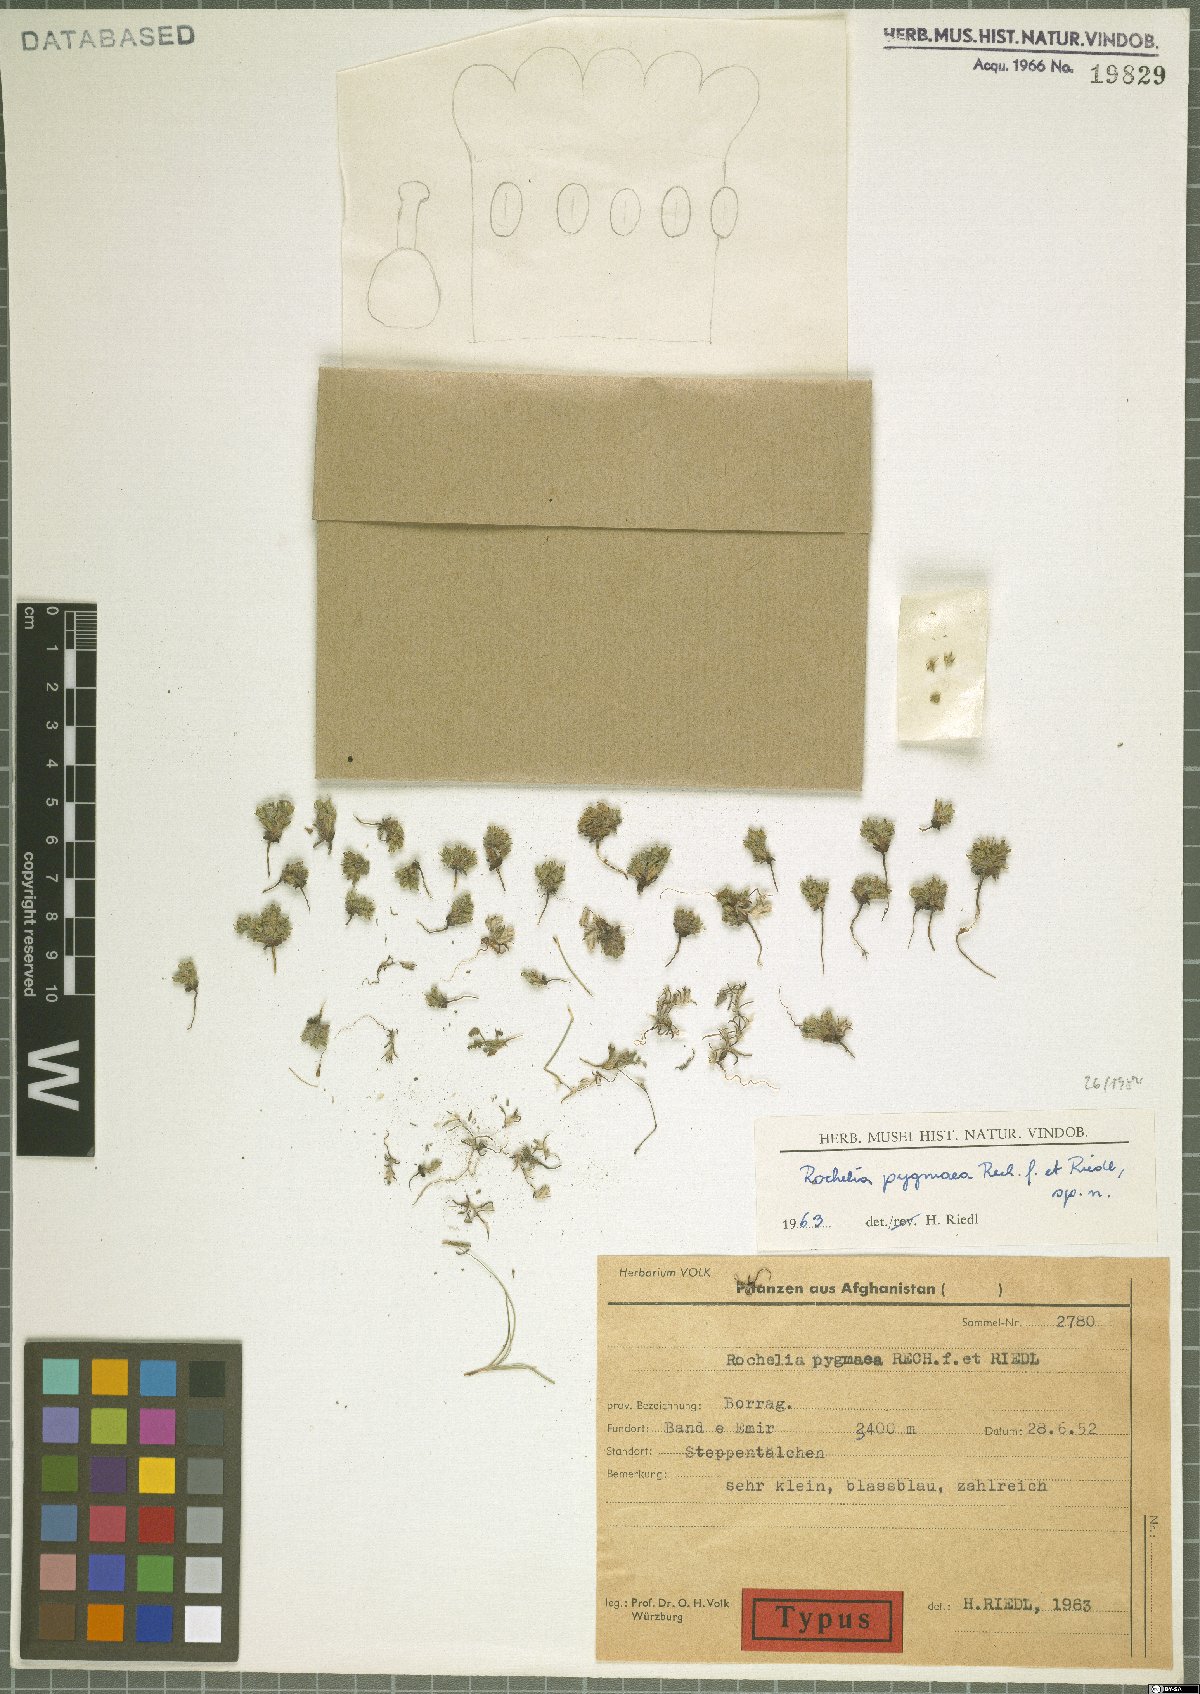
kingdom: Plantae
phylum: Tracheophyta
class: Magnoliopsida
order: Boraginales
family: Boraginaceae
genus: Rochelia
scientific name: Rochelia pygmaea
